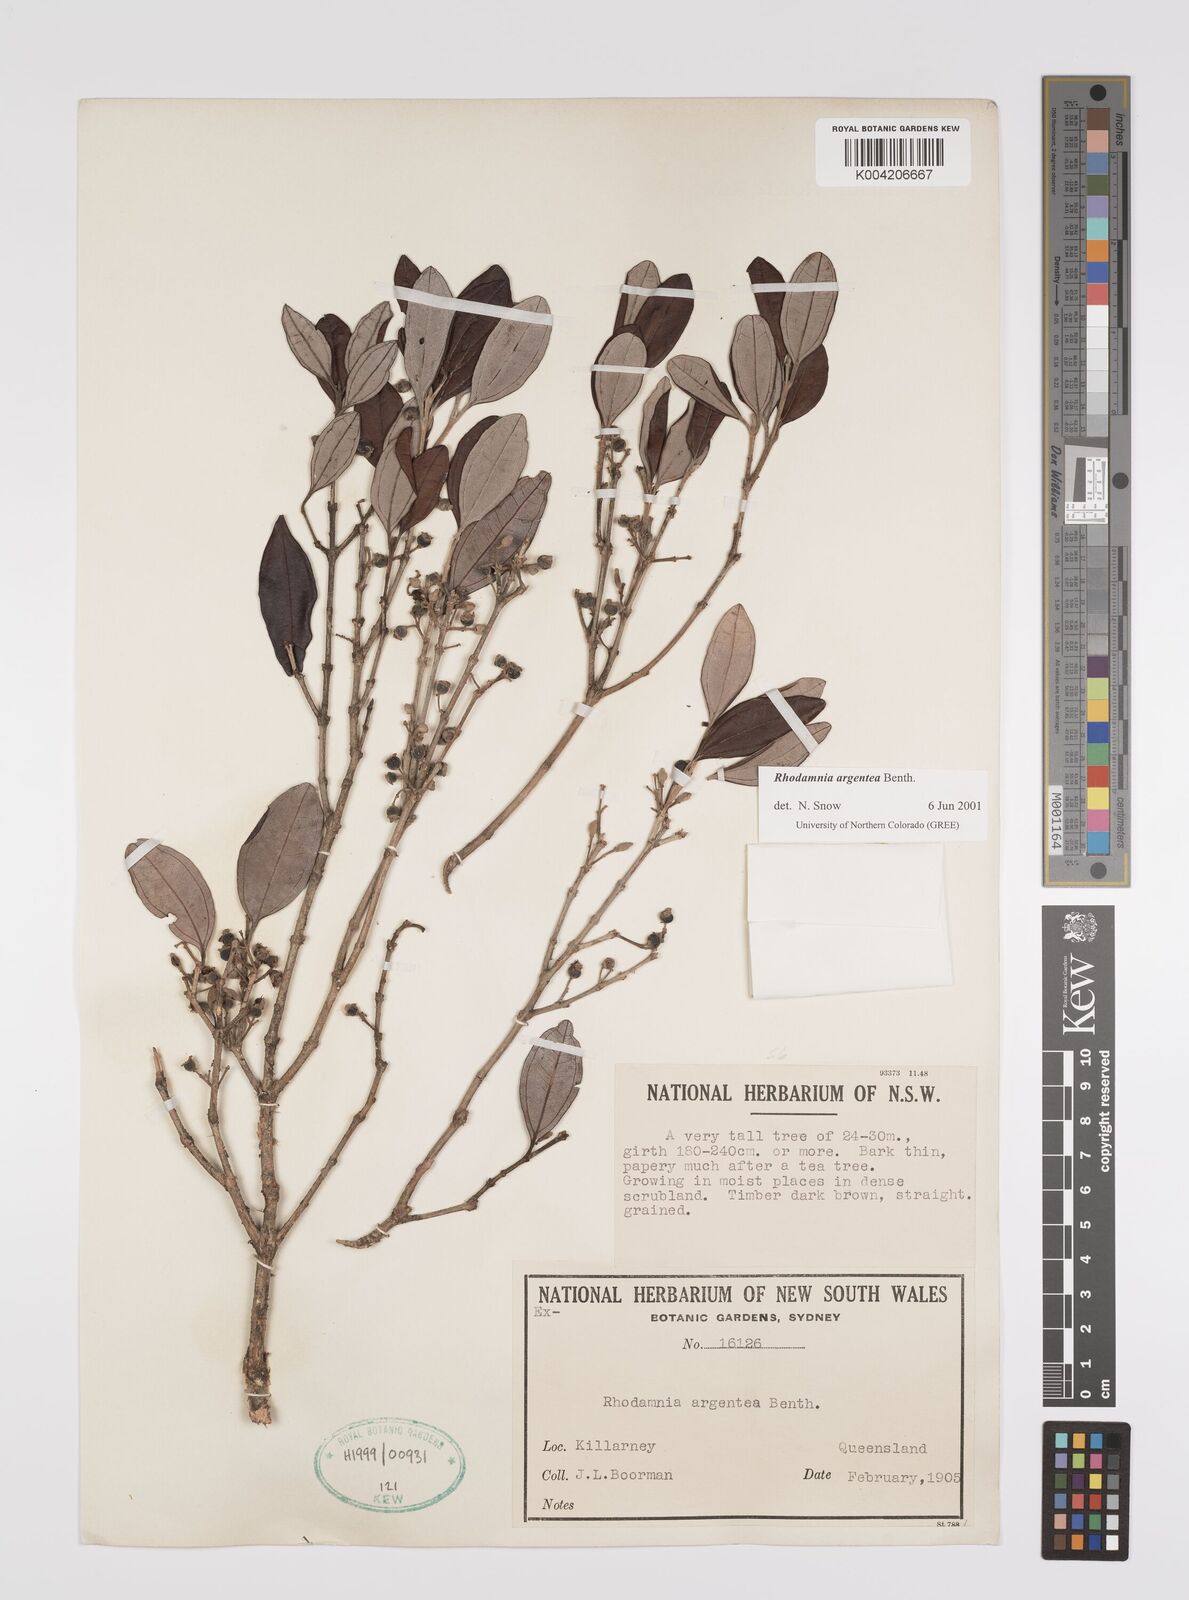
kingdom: Plantae
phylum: Tracheophyta
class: Magnoliopsida
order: Myrtales
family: Myrtaceae
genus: Rhodamnia
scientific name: Rhodamnia argentea
